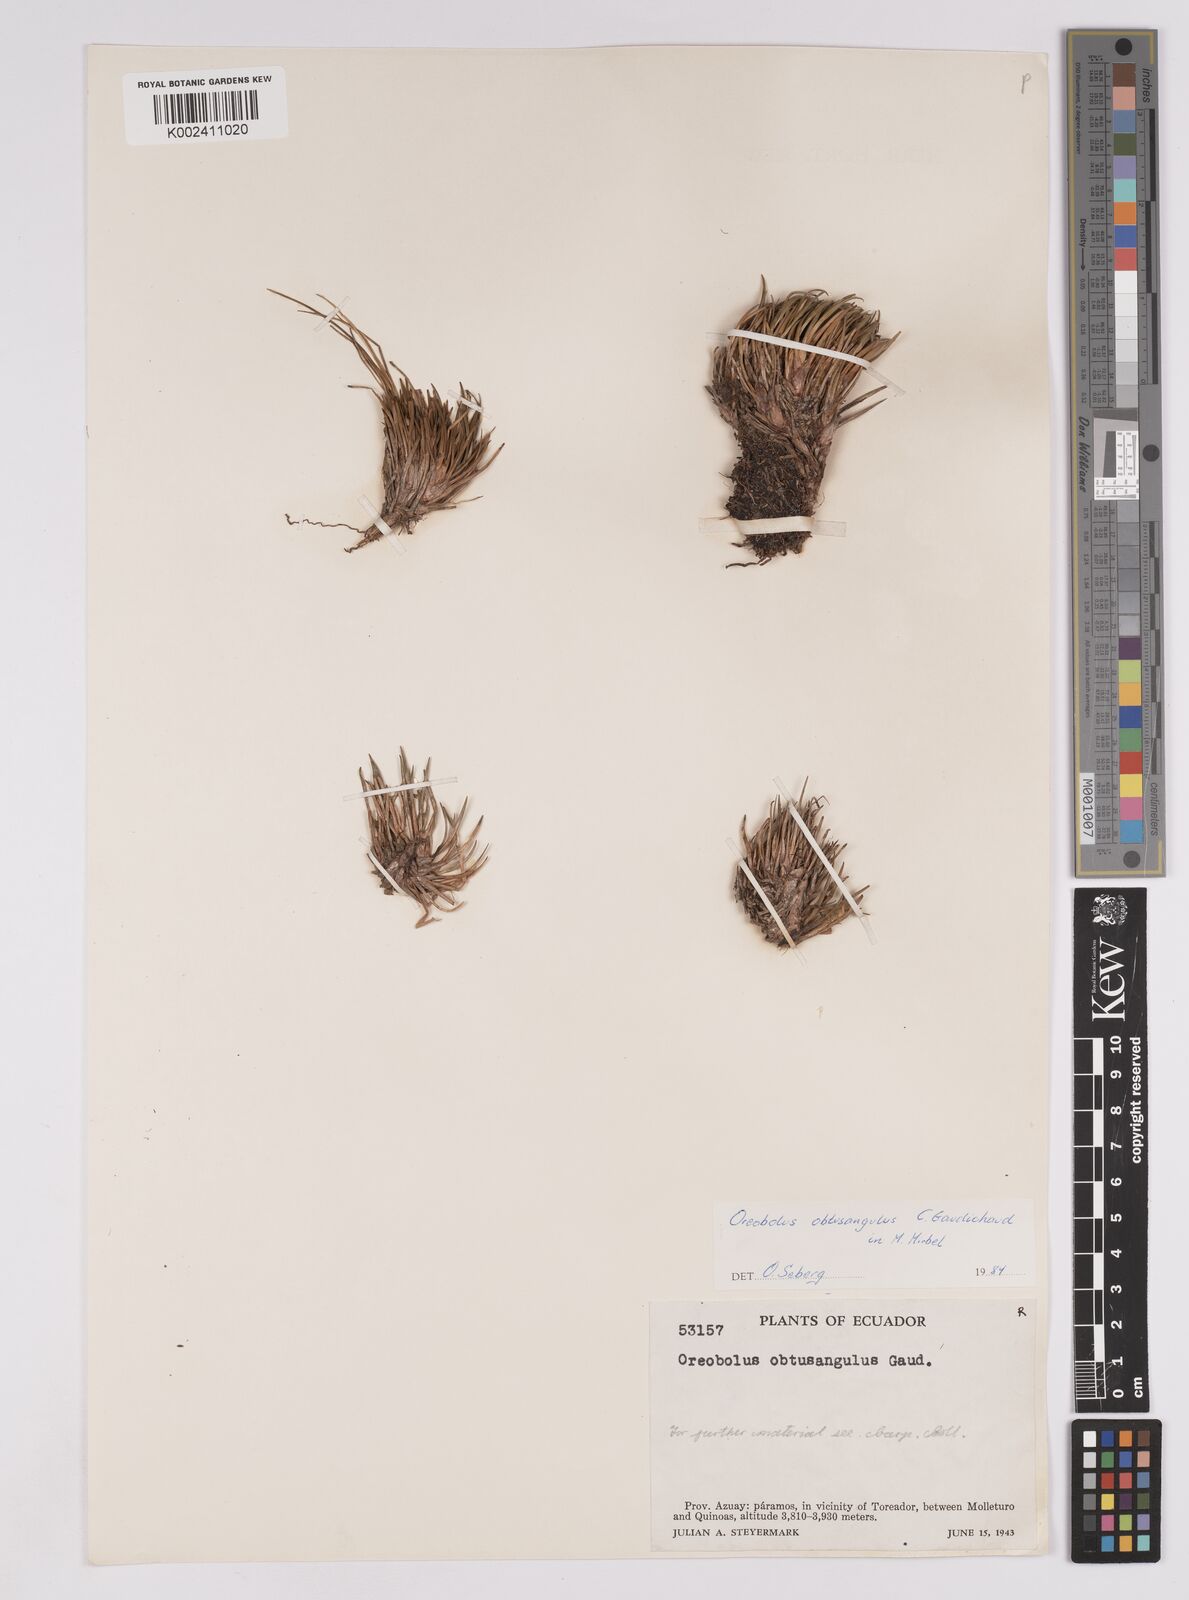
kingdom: Plantae
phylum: Tracheophyta
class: Liliopsida
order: Poales
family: Cyperaceae
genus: Oreobolus
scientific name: Oreobolus
